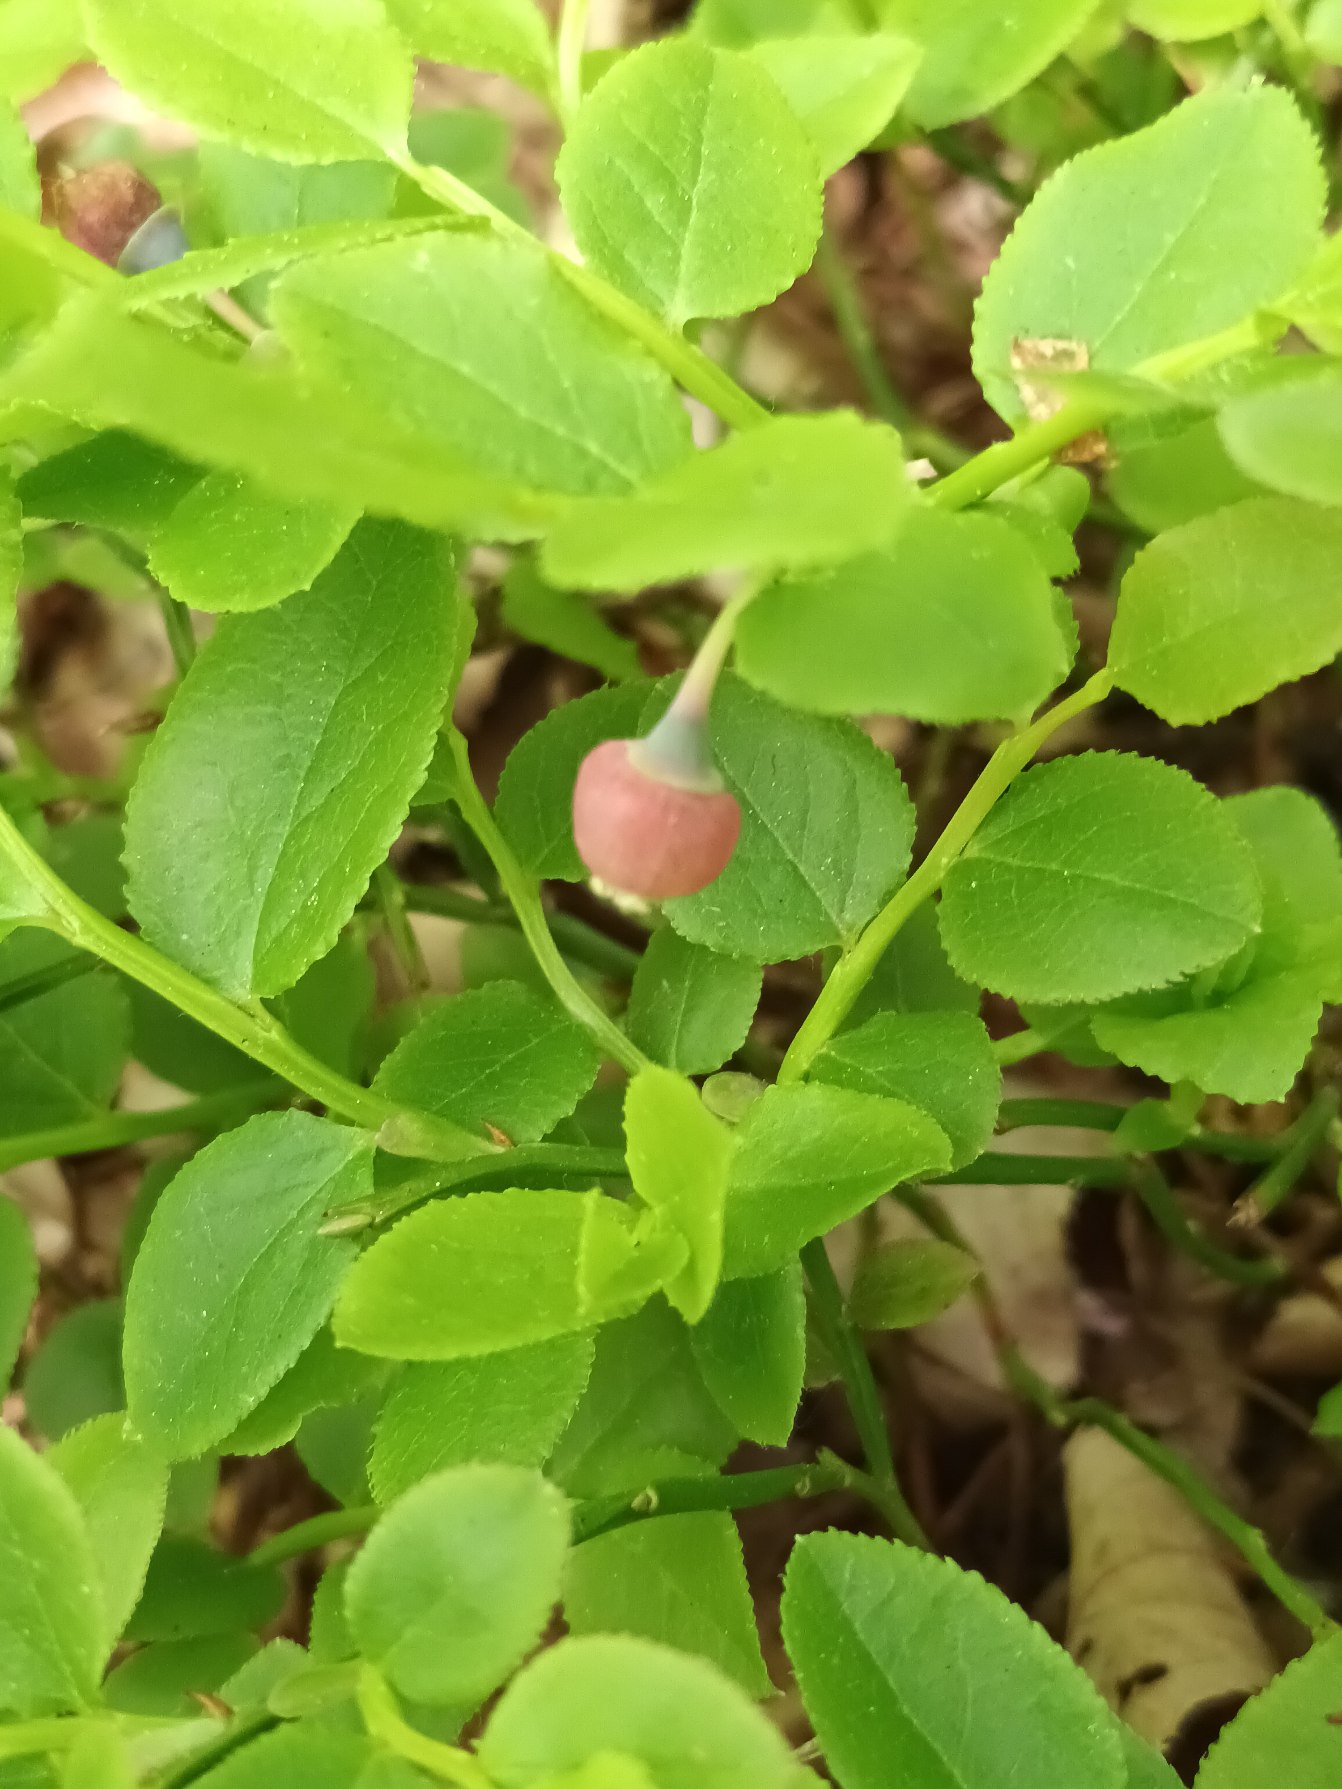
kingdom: Plantae
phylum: Tracheophyta
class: Magnoliopsida
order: Ericales
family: Ericaceae
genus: Vaccinium
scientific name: Vaccinium myrtillus
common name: Blåbær
